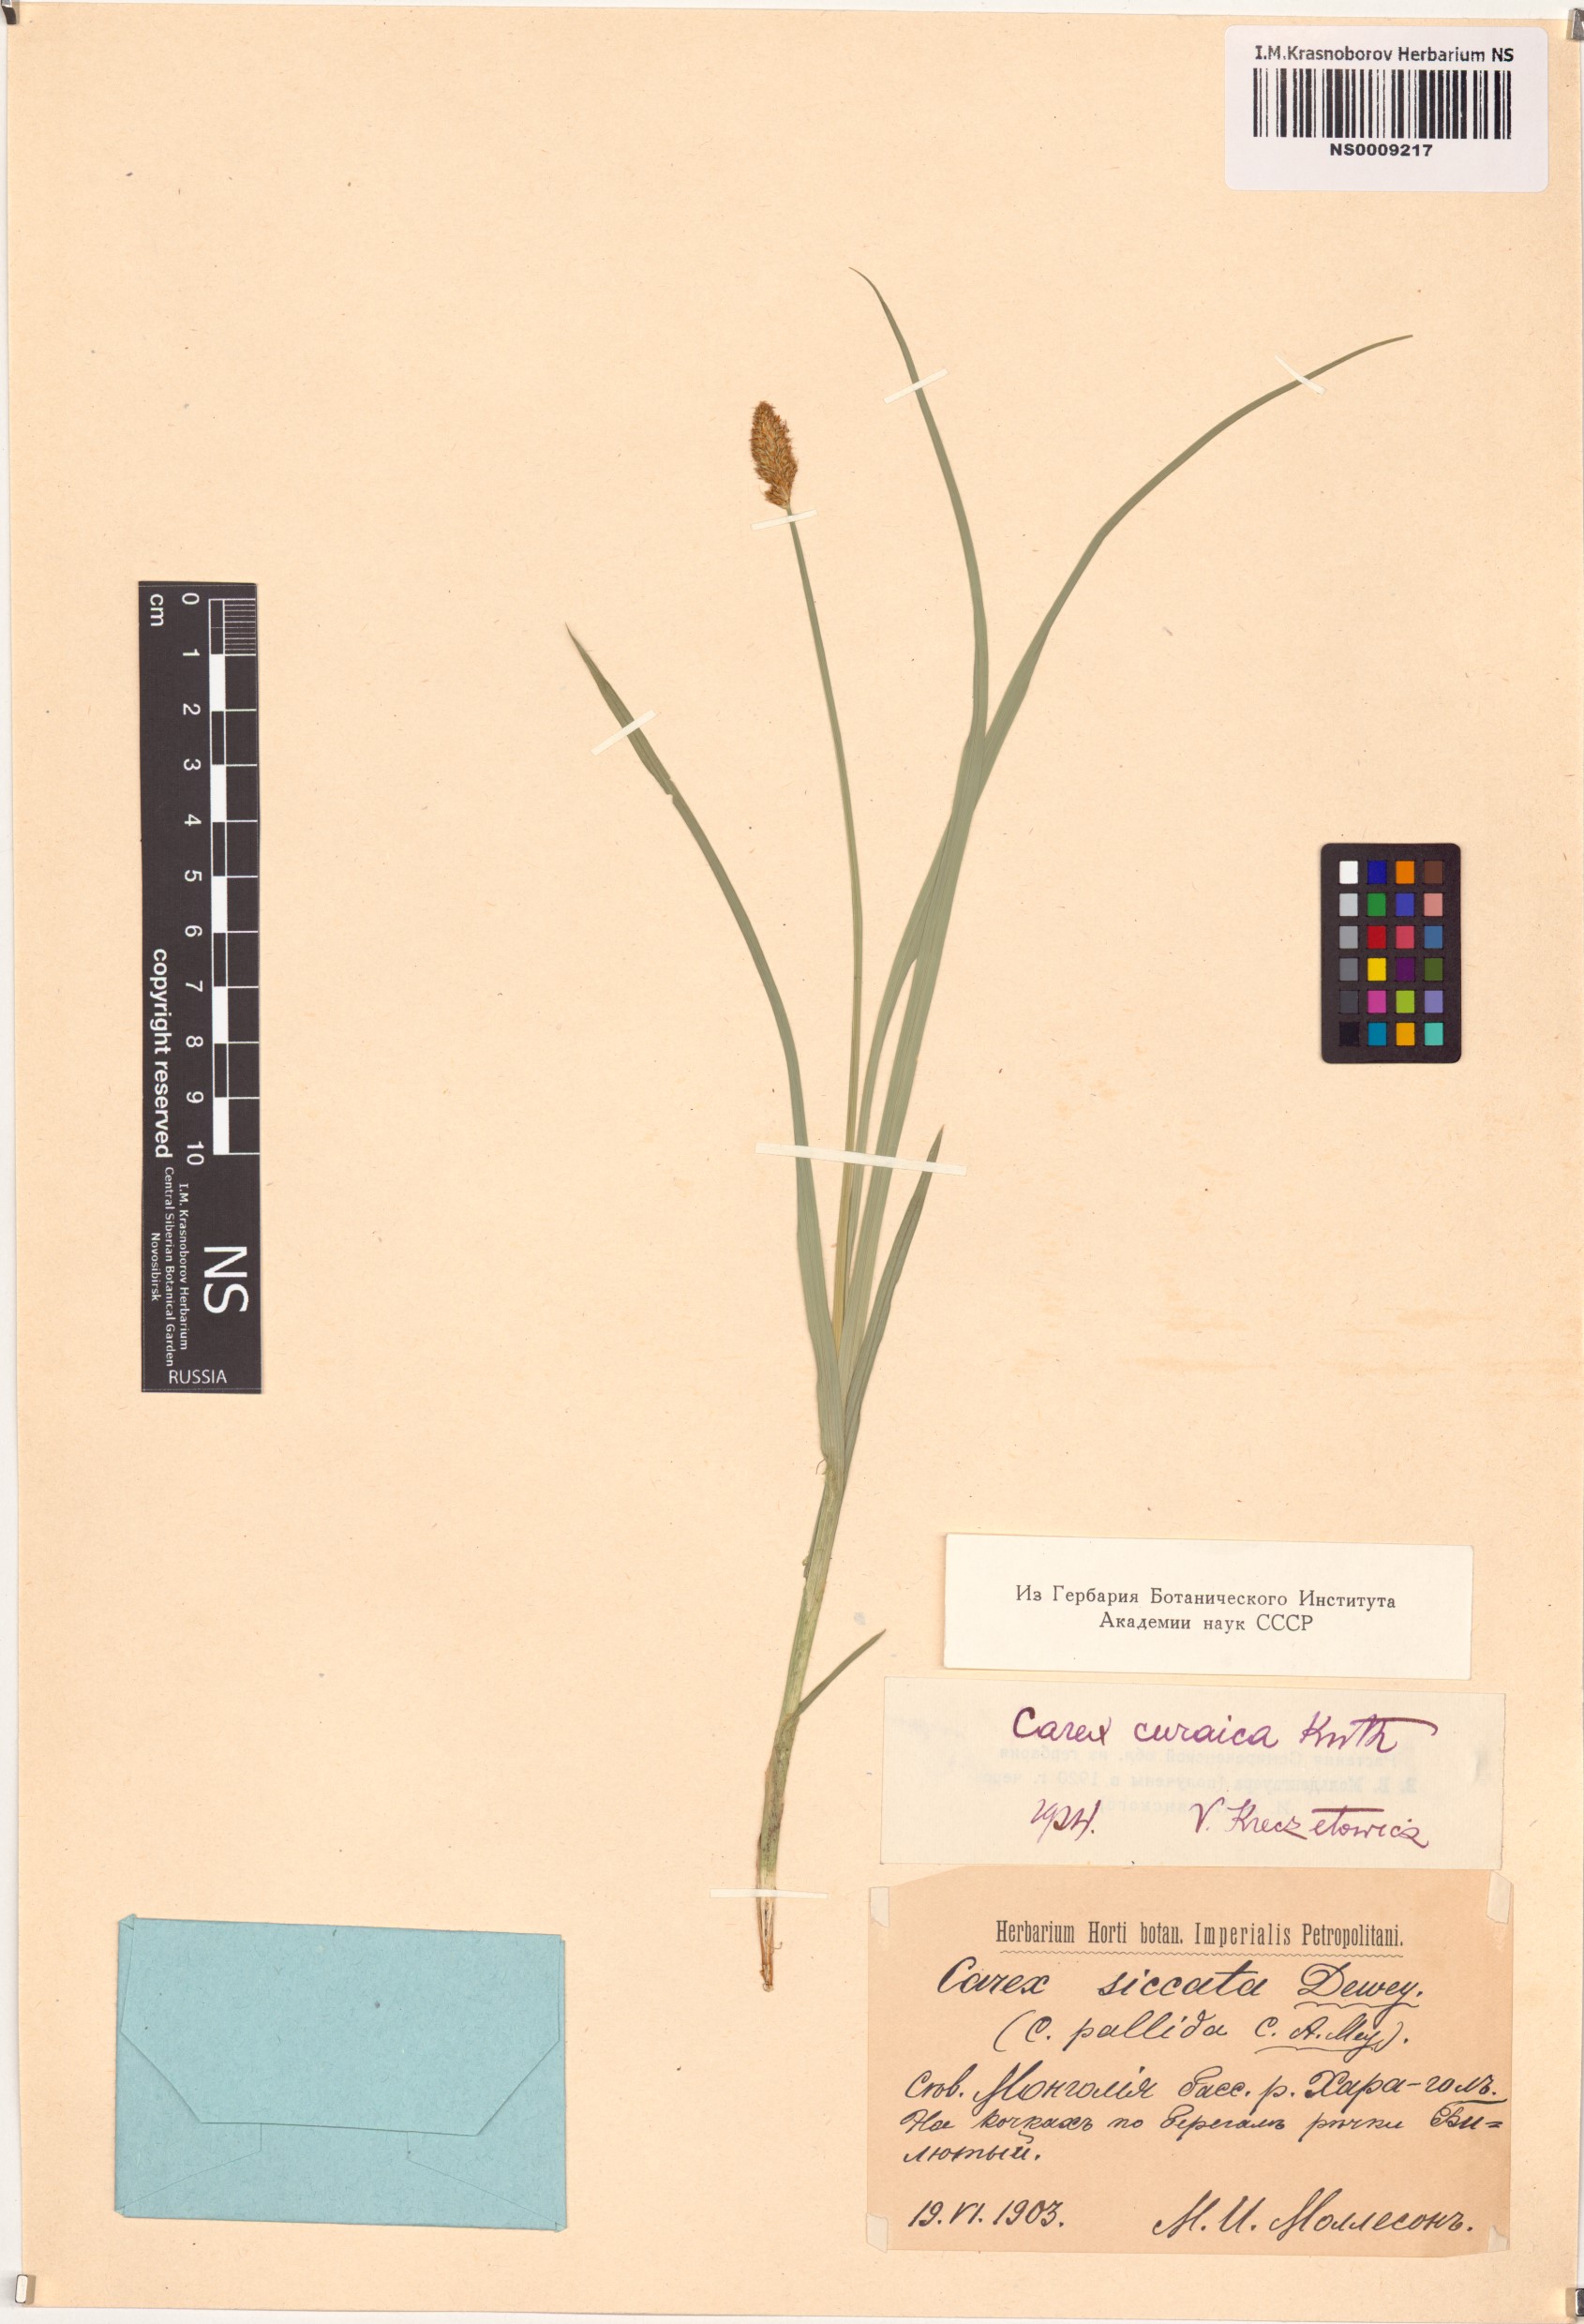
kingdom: Plantae
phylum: Tracheophyta
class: Liliopsida
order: Poales
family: Cyperaceae
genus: Carex
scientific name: Carex curaica
